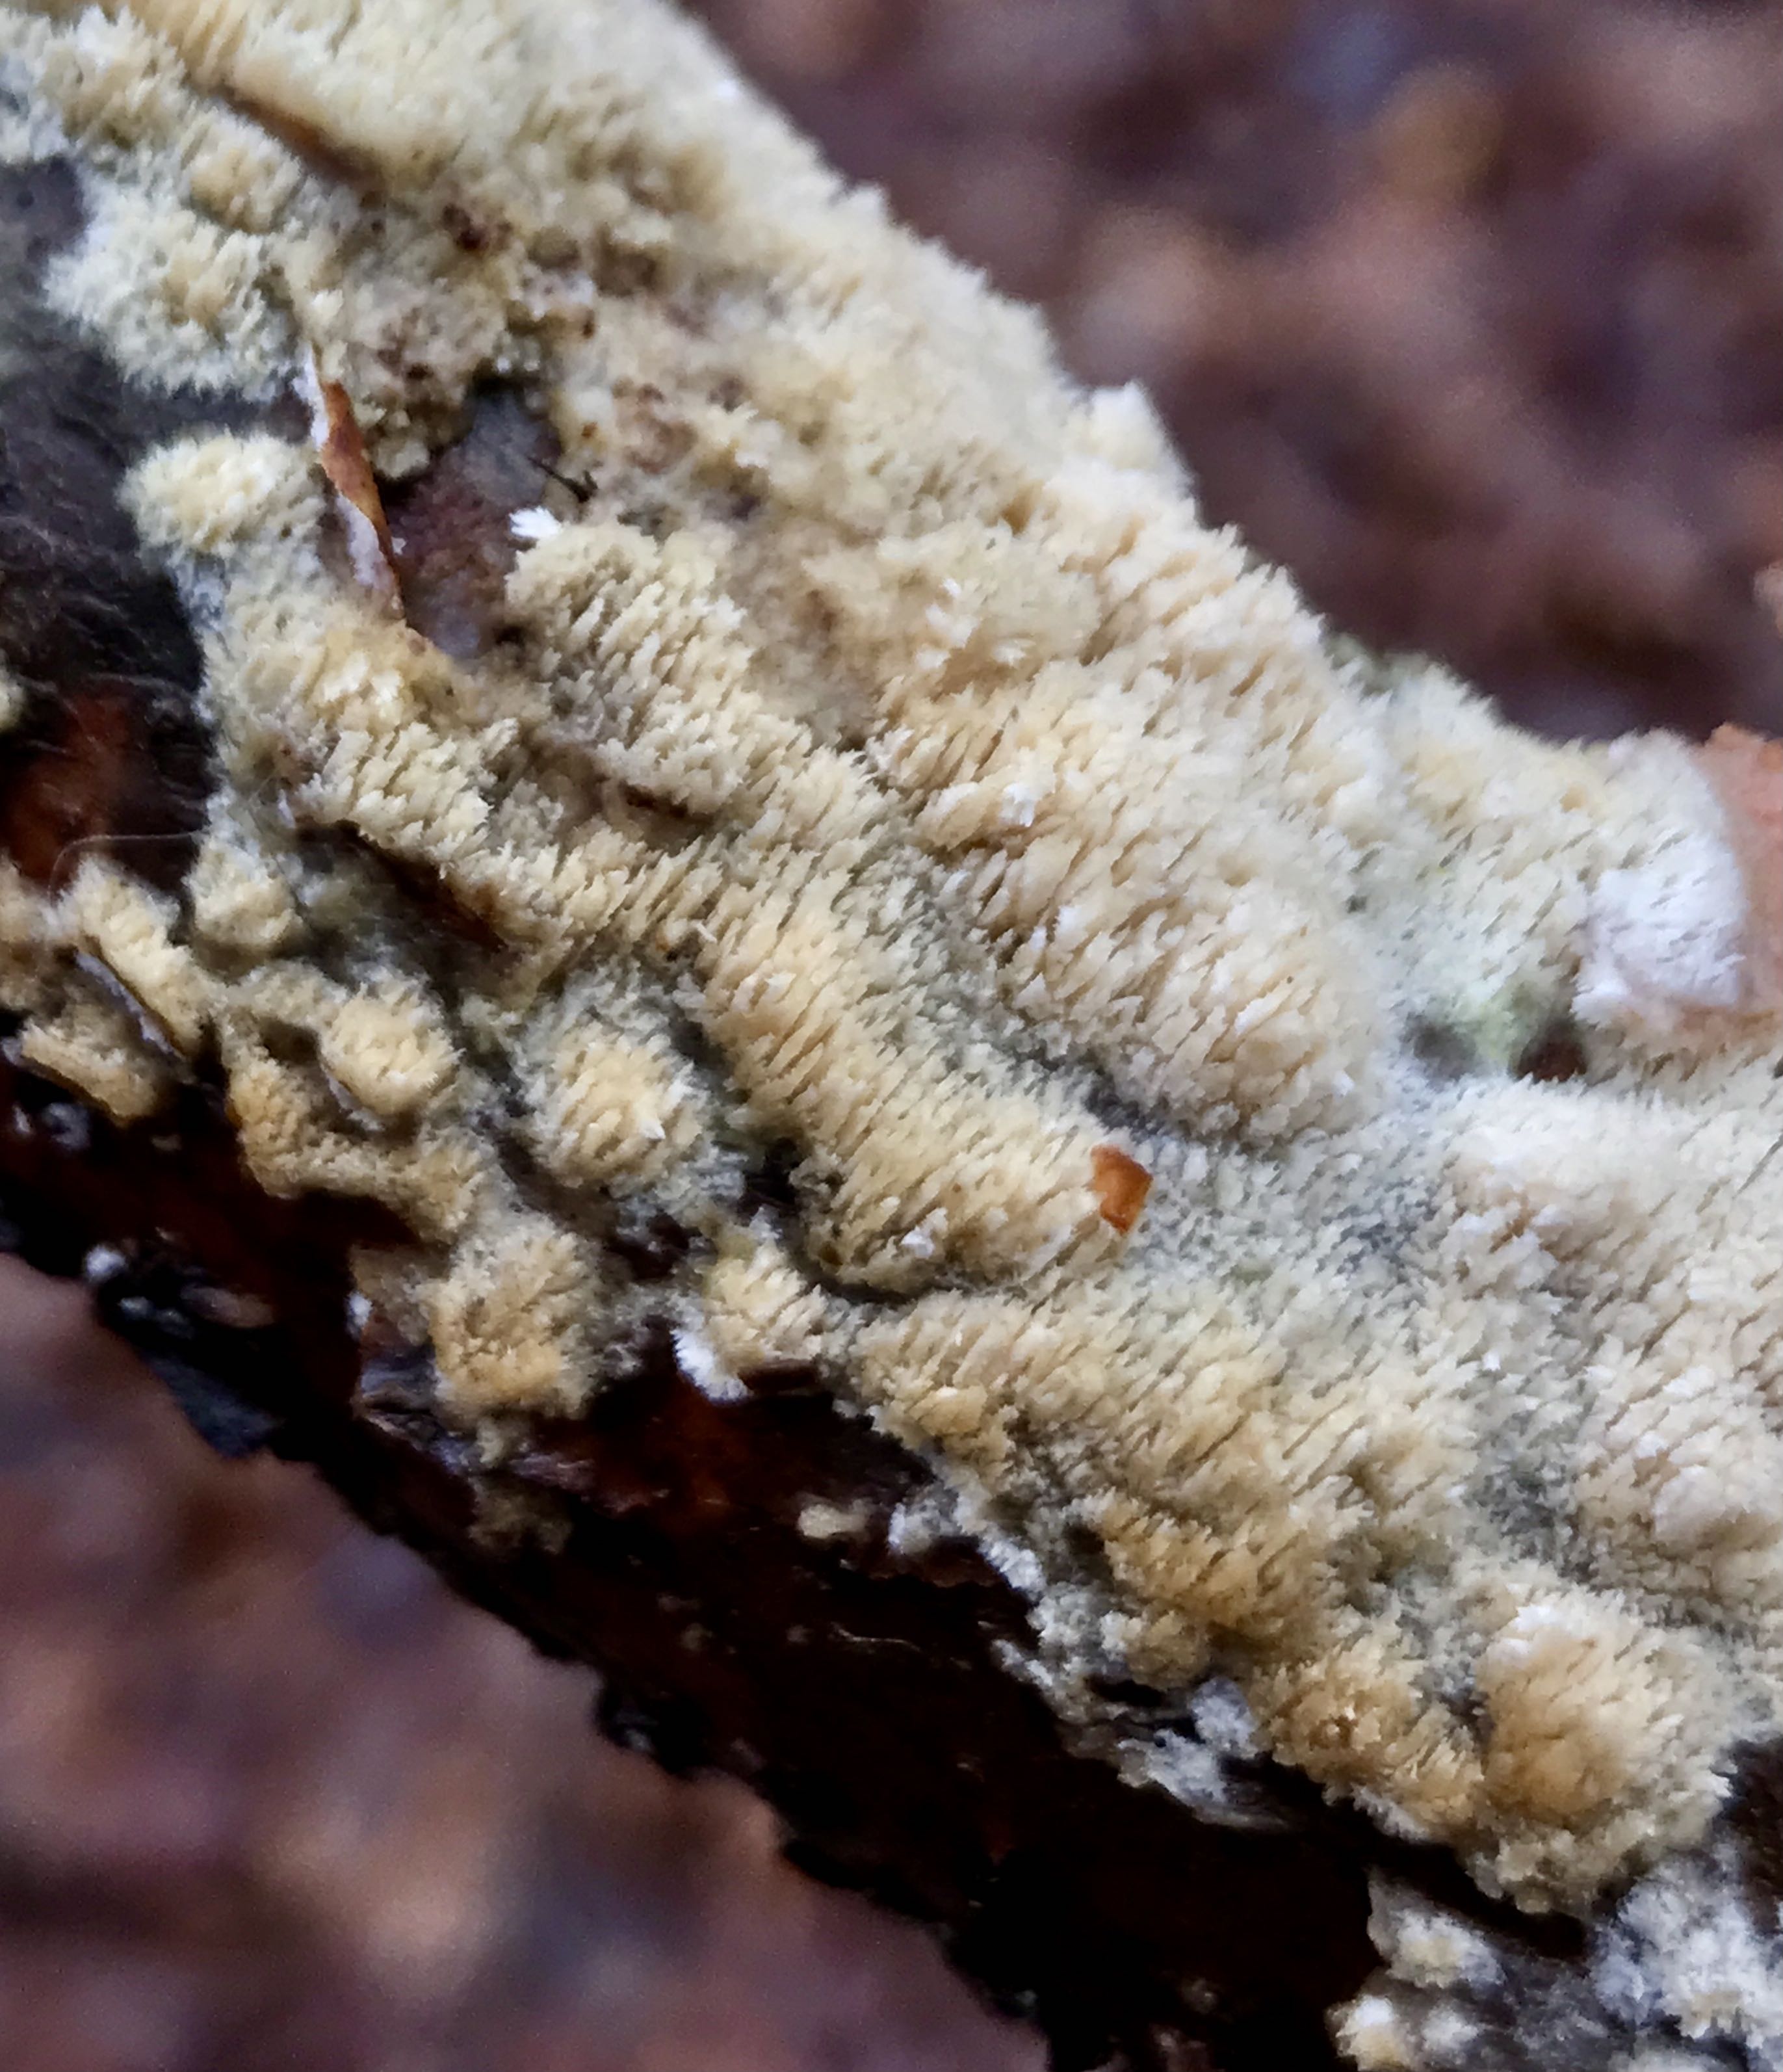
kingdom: Fungi
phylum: Basidiomycota
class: Agaricomycetes
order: Hymenochaetales
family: Schizoporaceae
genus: Schizopora
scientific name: Schizopora paradoxa
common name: hvid tandsvamp
